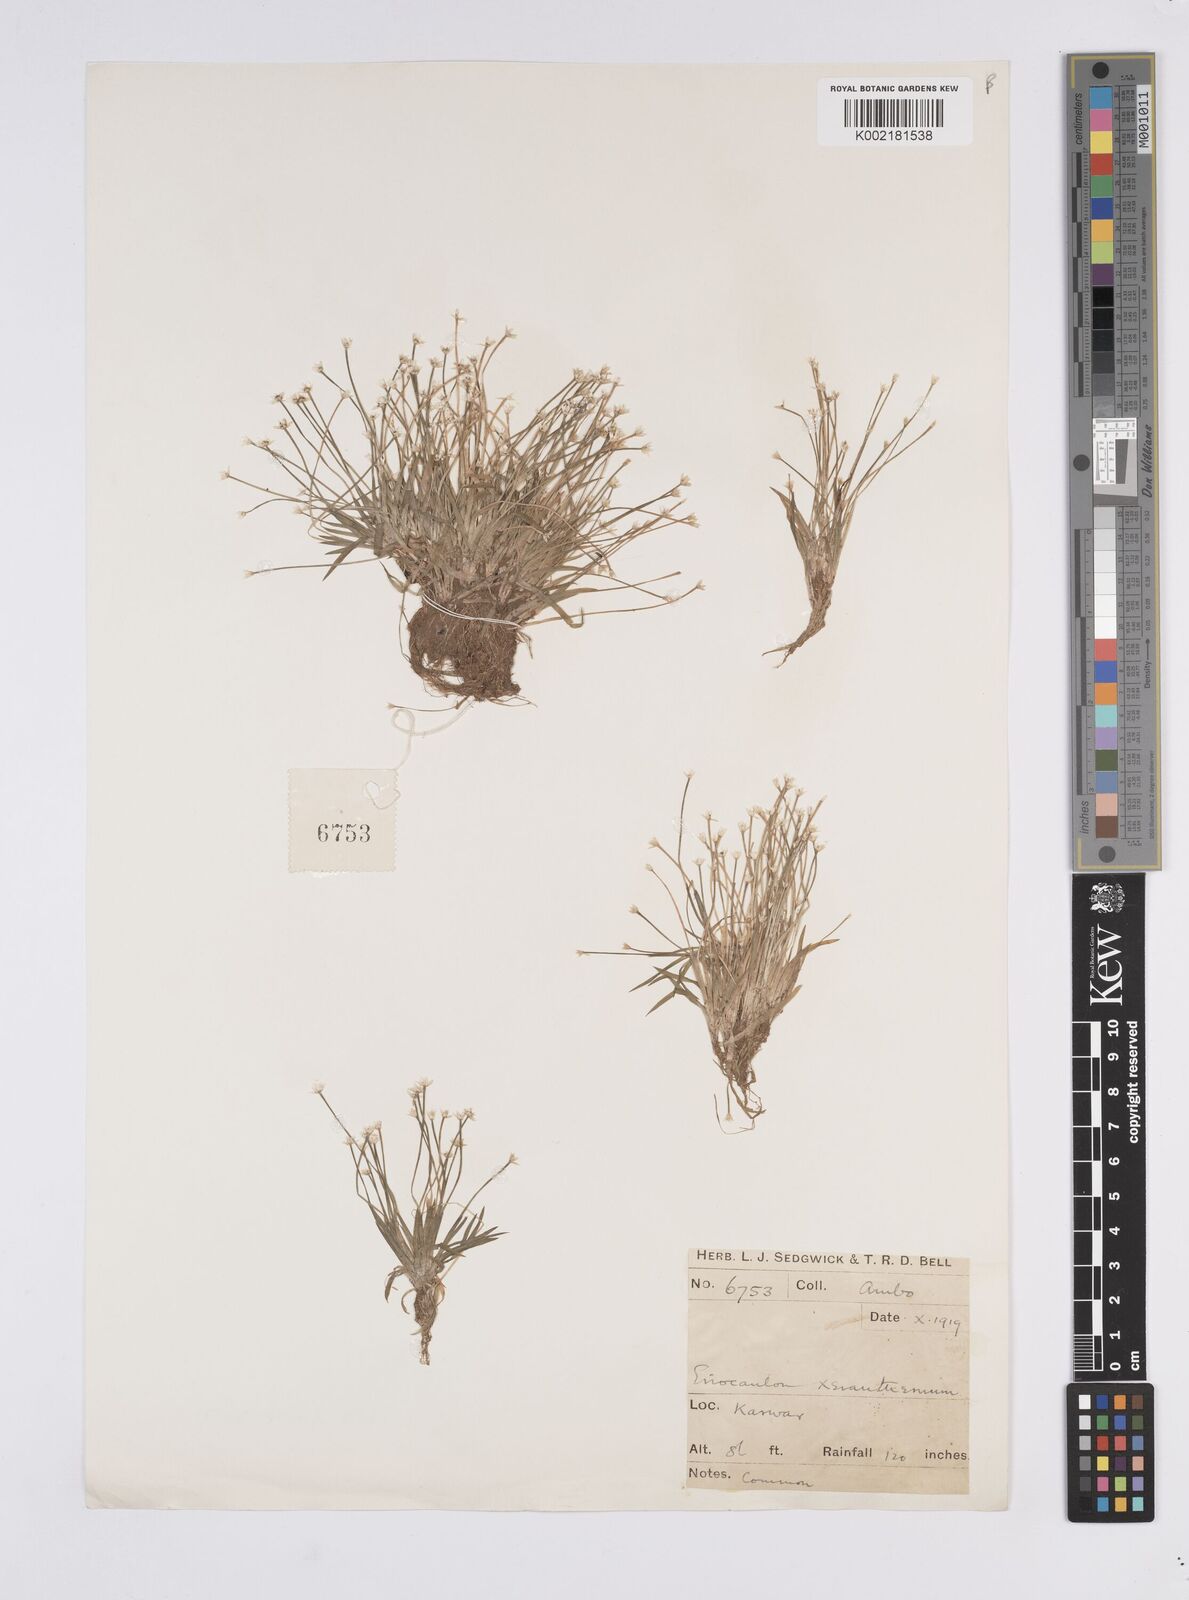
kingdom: Plantae
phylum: Tracheophyta
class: Liliopsida
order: Poales
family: Eriocaulaceae
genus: Eriocaulon
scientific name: Eriocaulon xeranthemum
